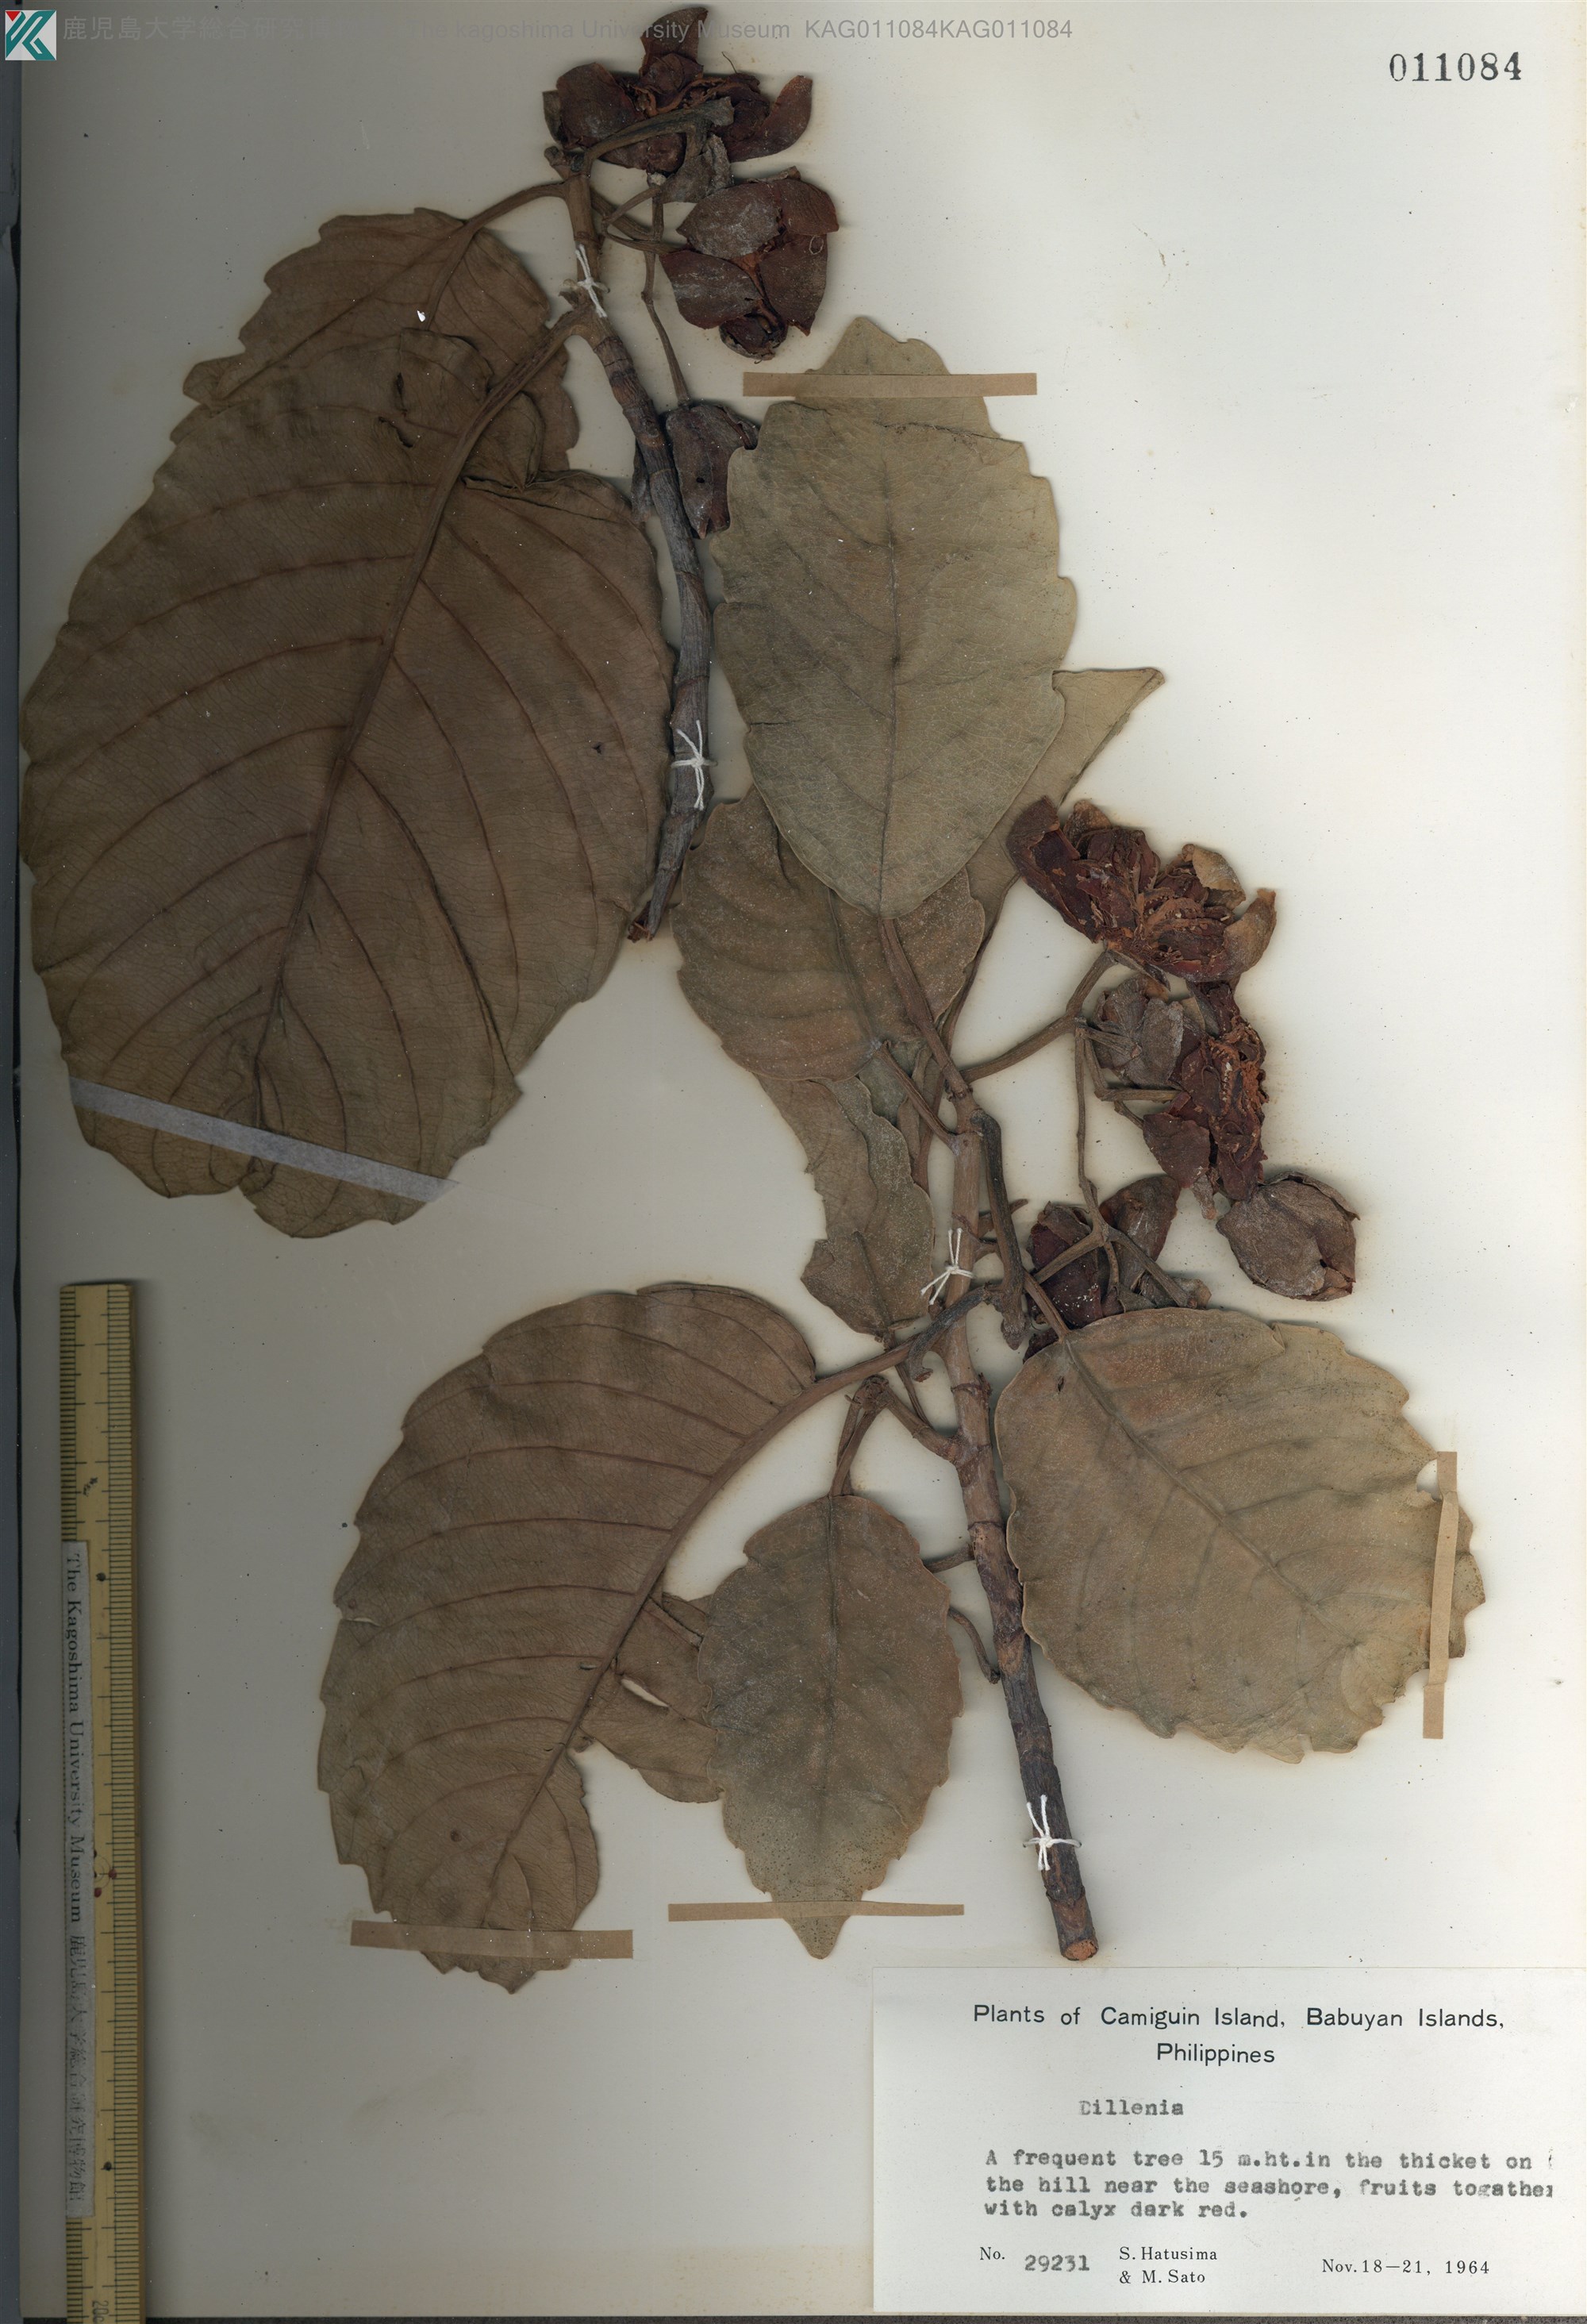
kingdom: Plantae
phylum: Tracheophyta
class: Magnoliopsida
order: Dilleniales
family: Dilleniaceae
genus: Dillenia
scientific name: Dillenia
